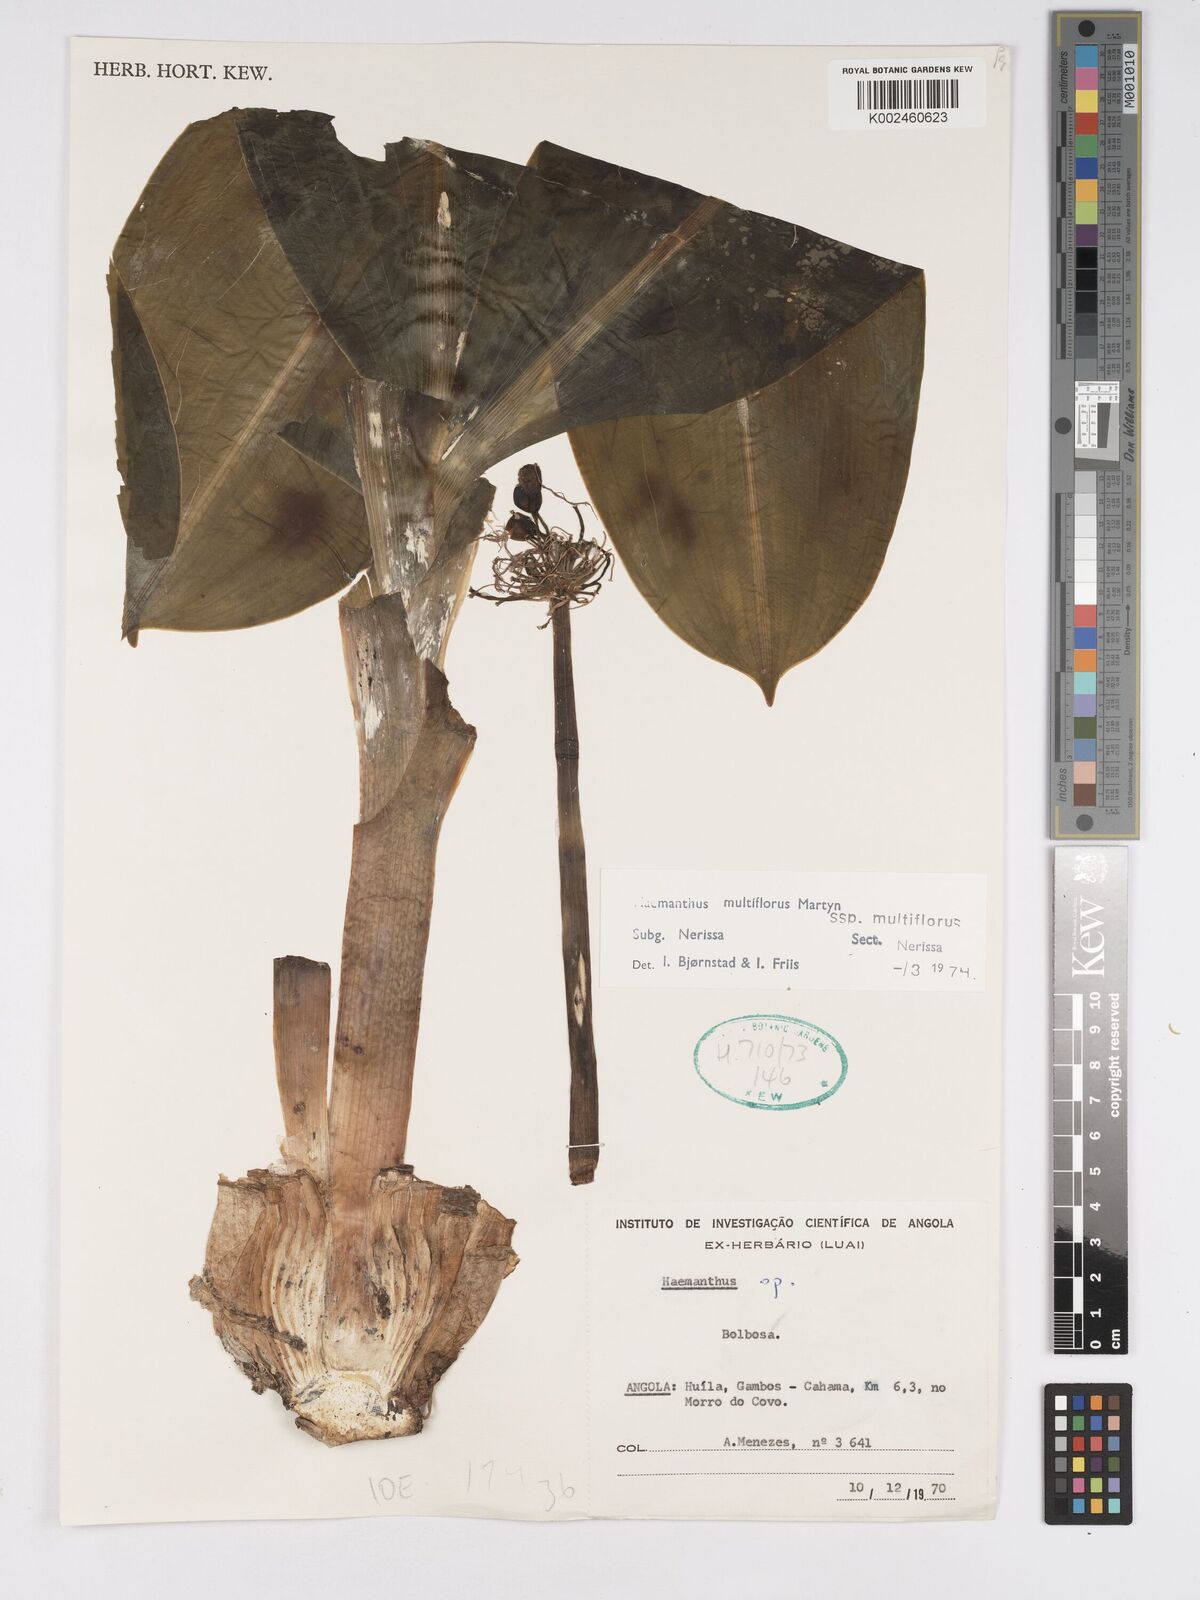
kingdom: Plantae
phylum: Tracheophyta
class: Liliopsida
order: Asparagales
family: Amaryllidaceae
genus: Scadoxus
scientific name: Scadoxus multiflorus
